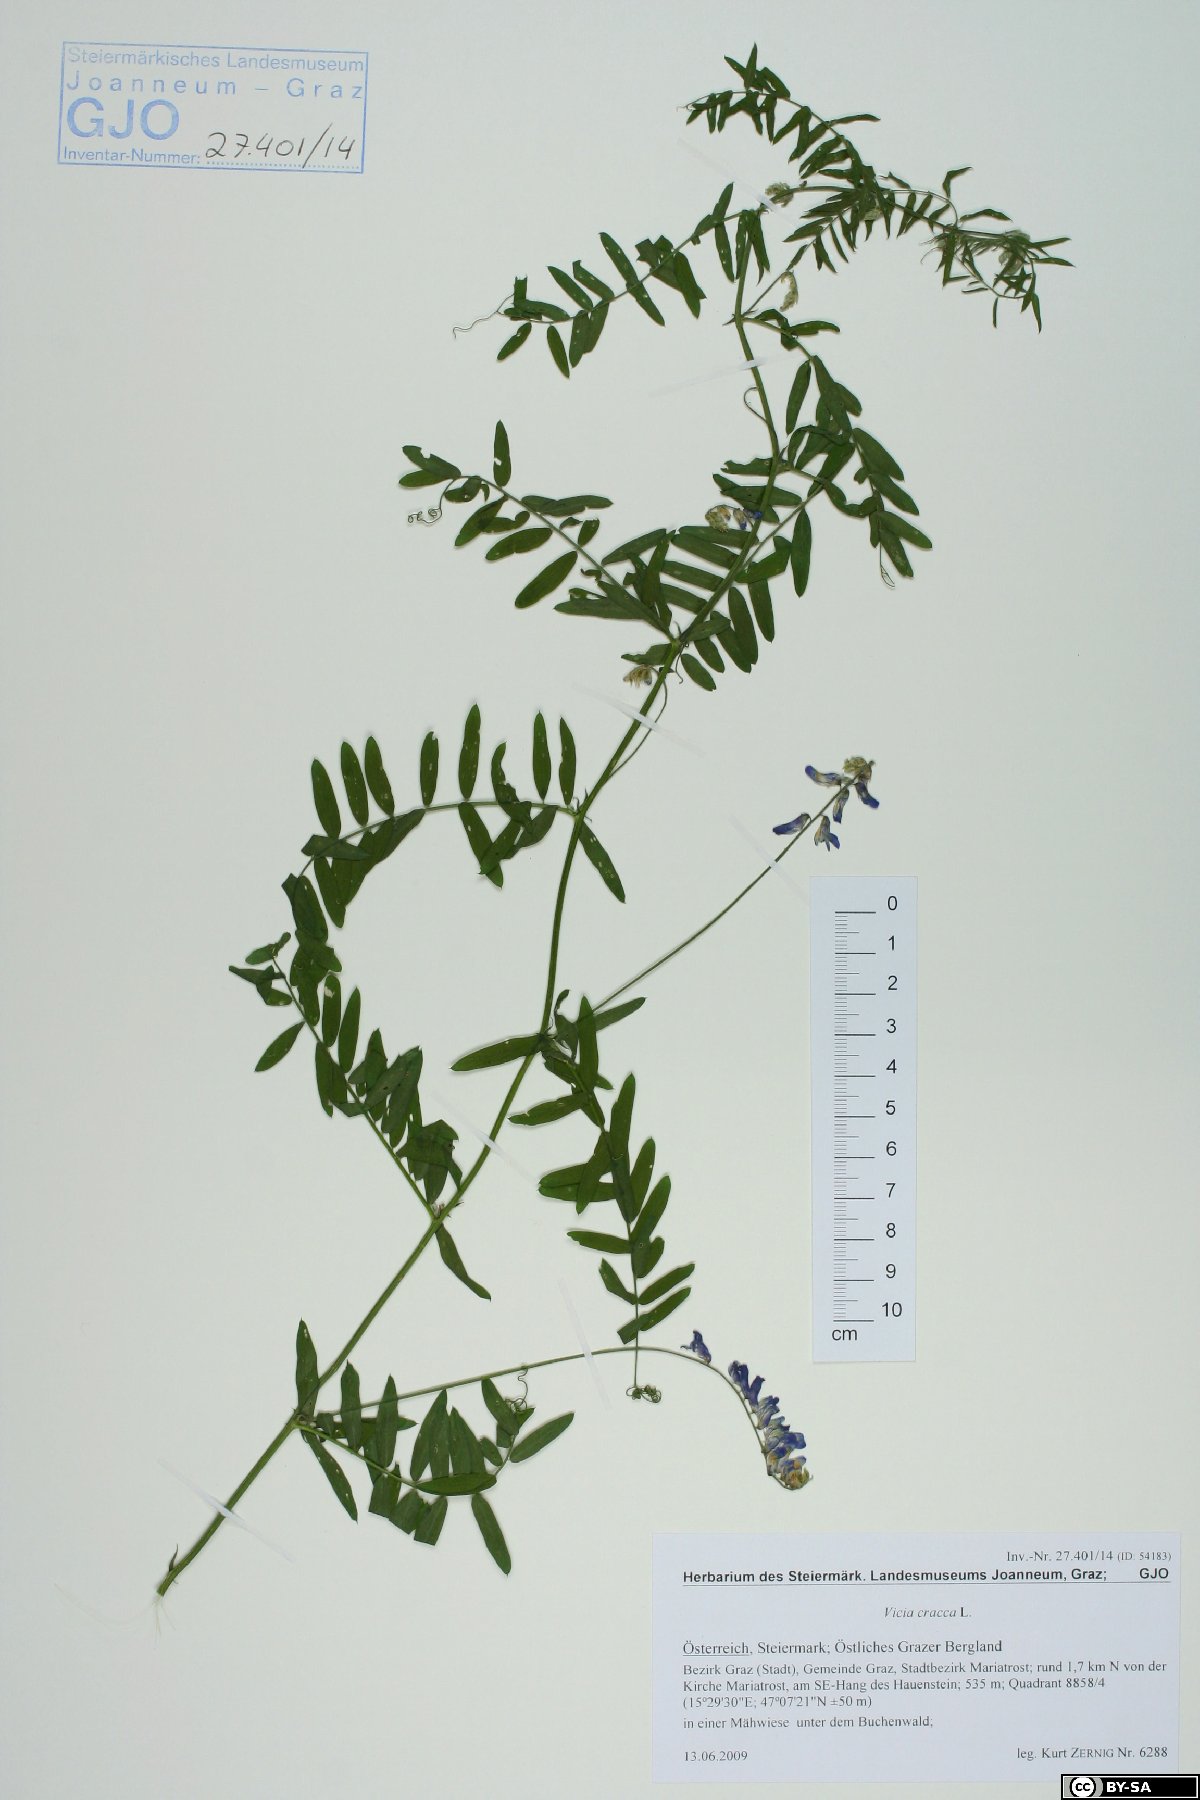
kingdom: Plantae
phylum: Tracheophyta
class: Magnoliopsida
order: Fabales
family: Fabaceae
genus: Vicia
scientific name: Vicia cracca
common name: Bird vetch
